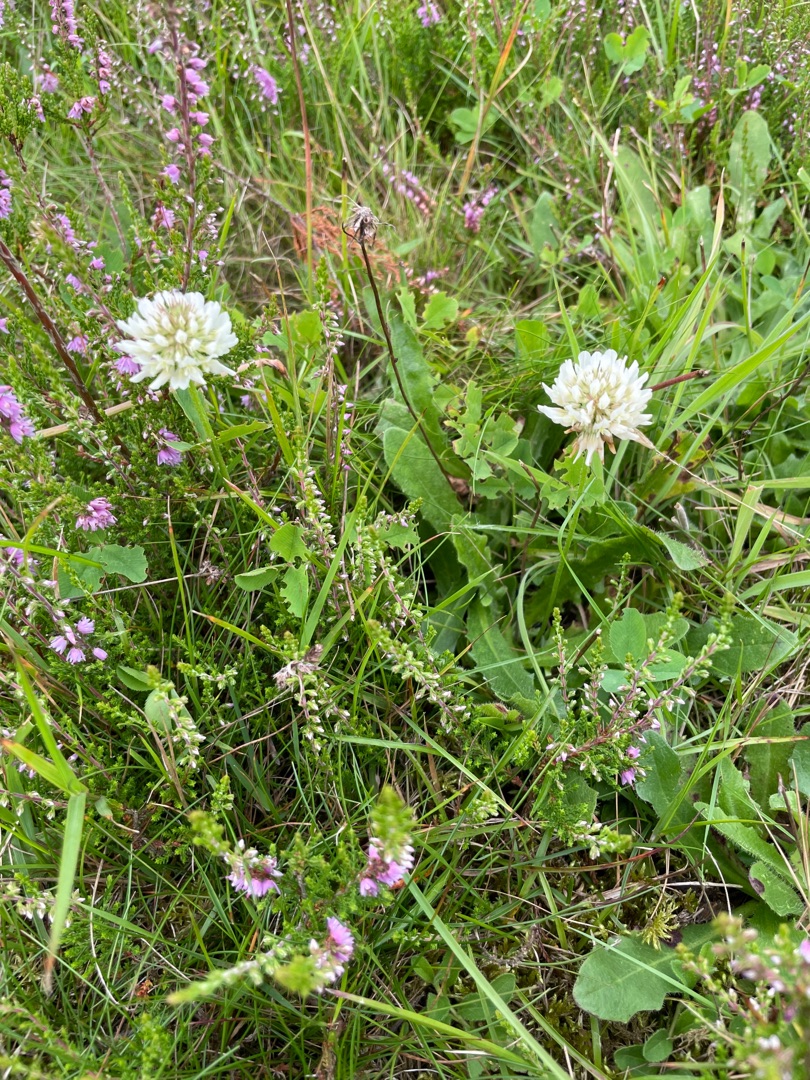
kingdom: Plantae
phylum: Tracheophyta
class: Magnoliopsida
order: Fabales
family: Fabaceae
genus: Trifolium
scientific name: Trifolium repens
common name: Hvid-kløver
